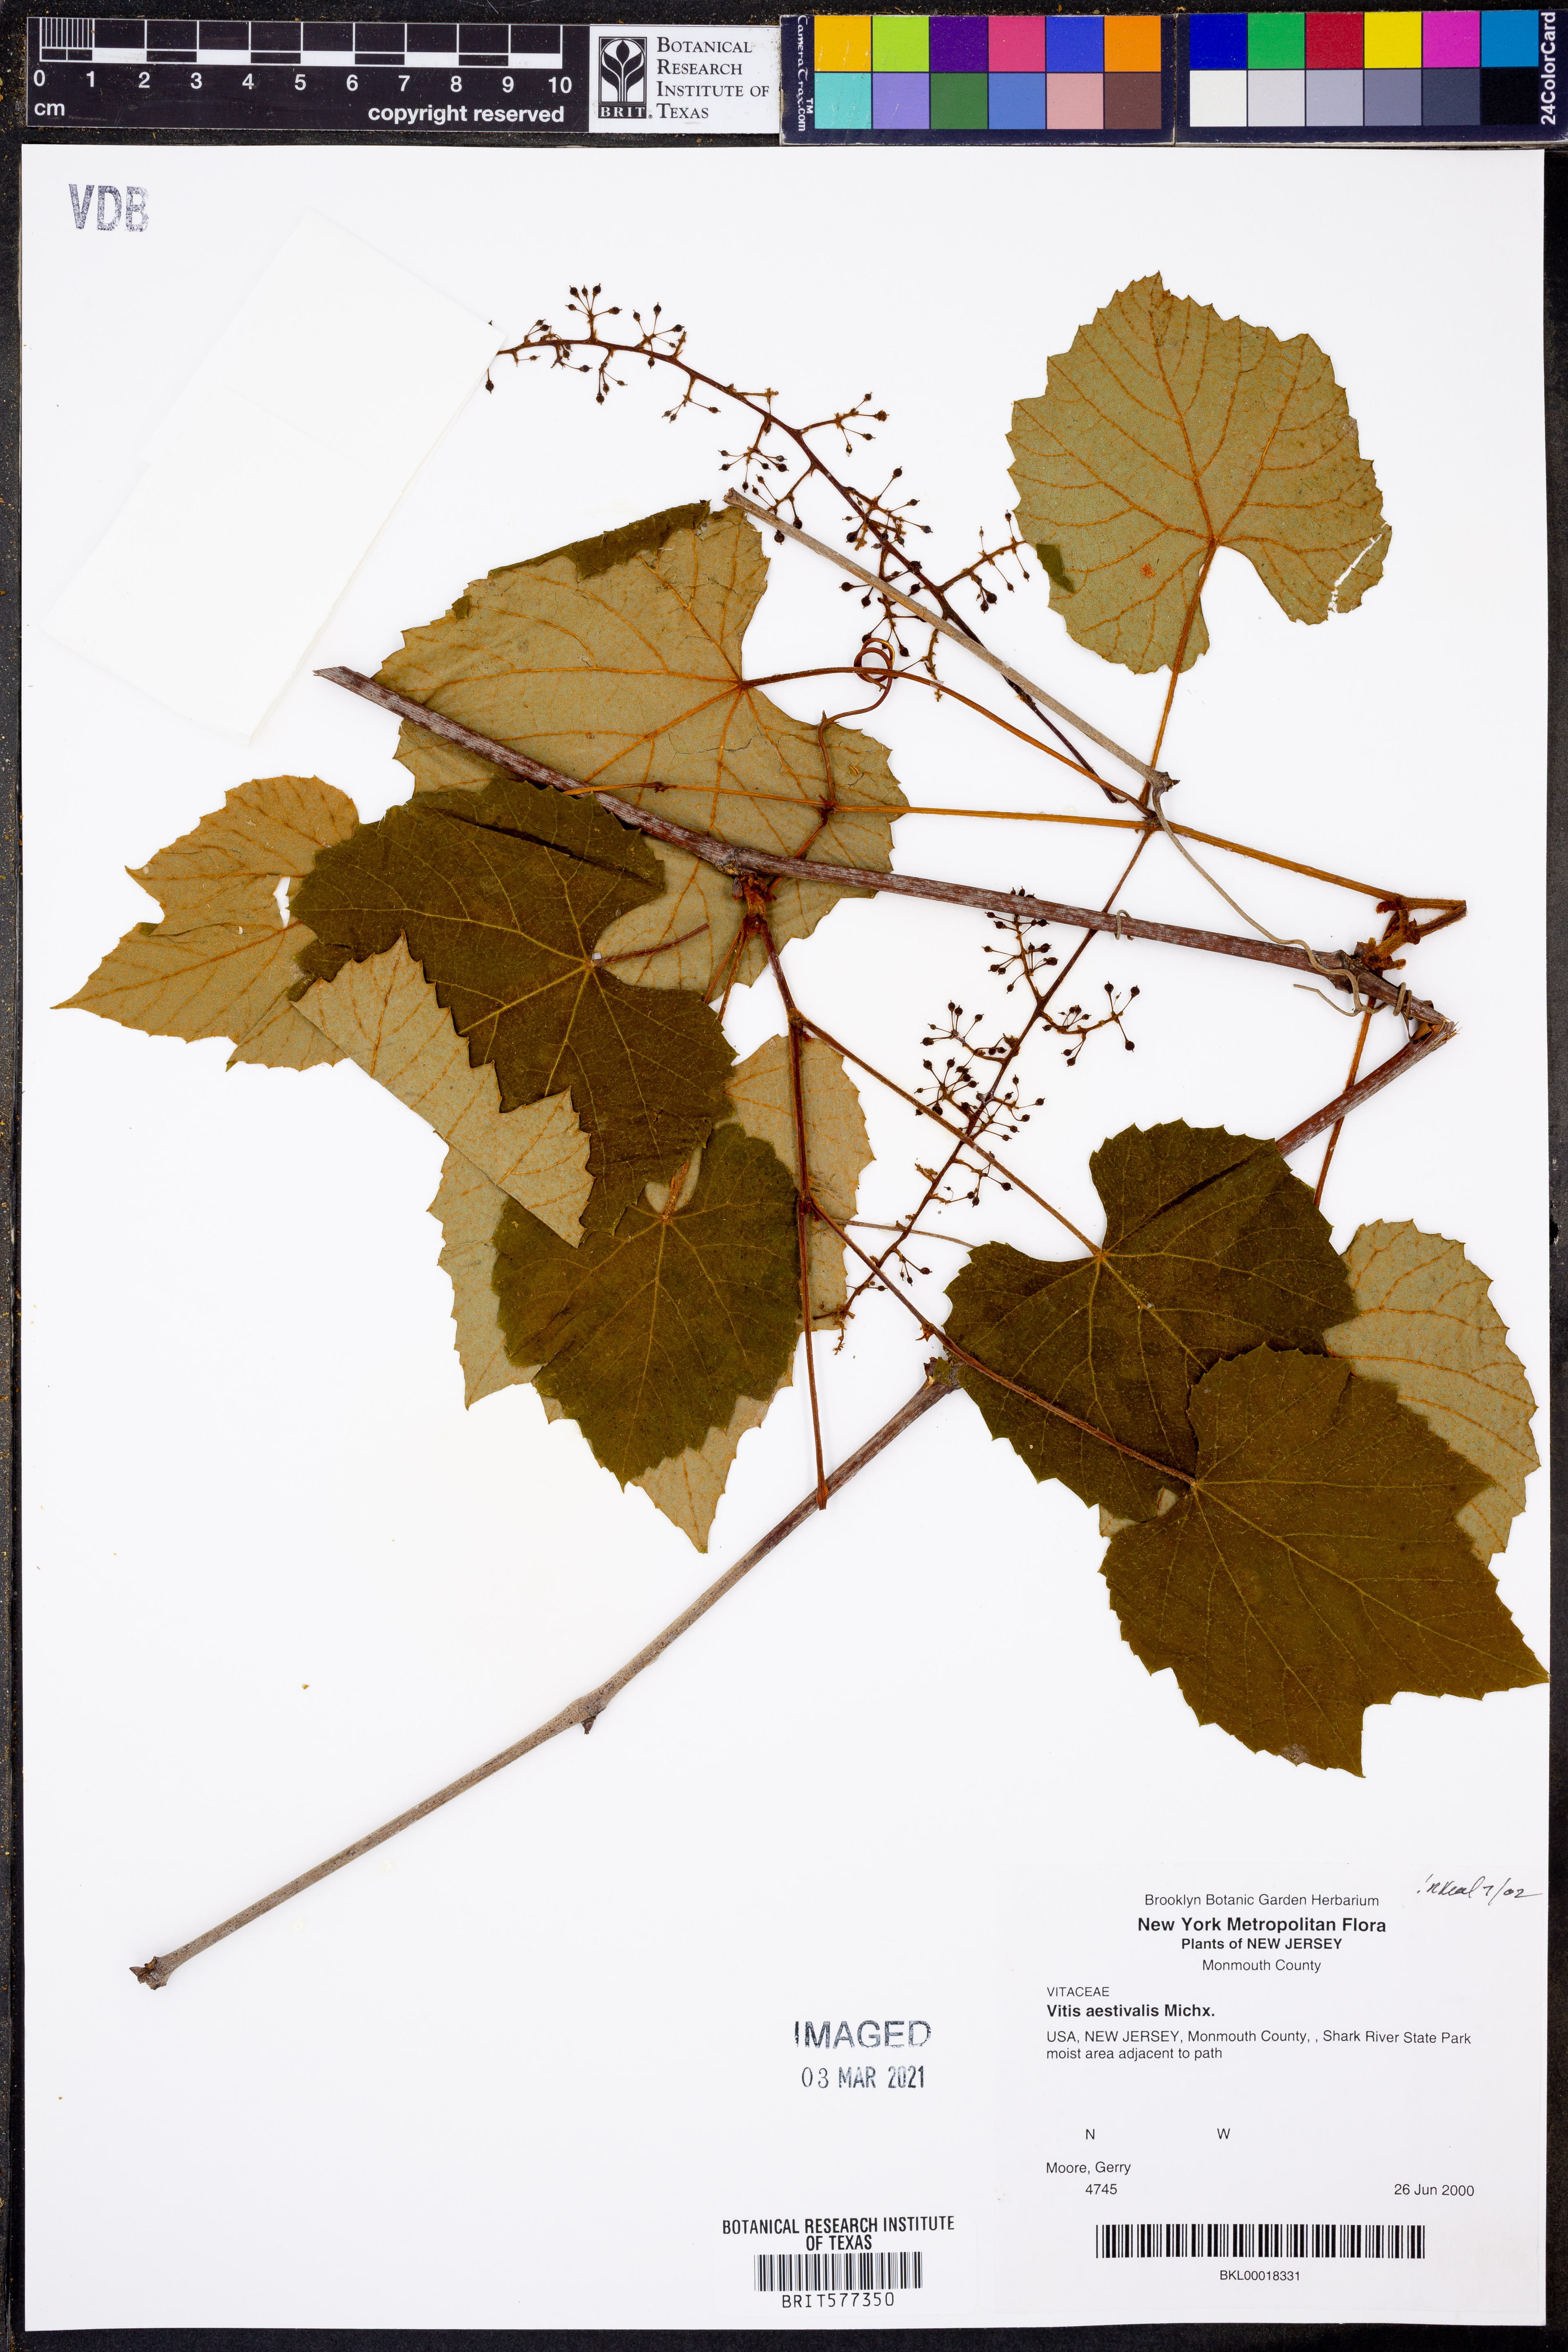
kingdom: Plantae
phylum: Tracheophyta
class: Magnoliopsida
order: Vitales
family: Vitaceae
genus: Vitis
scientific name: Vitis aestivalis
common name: Pigeon grape
